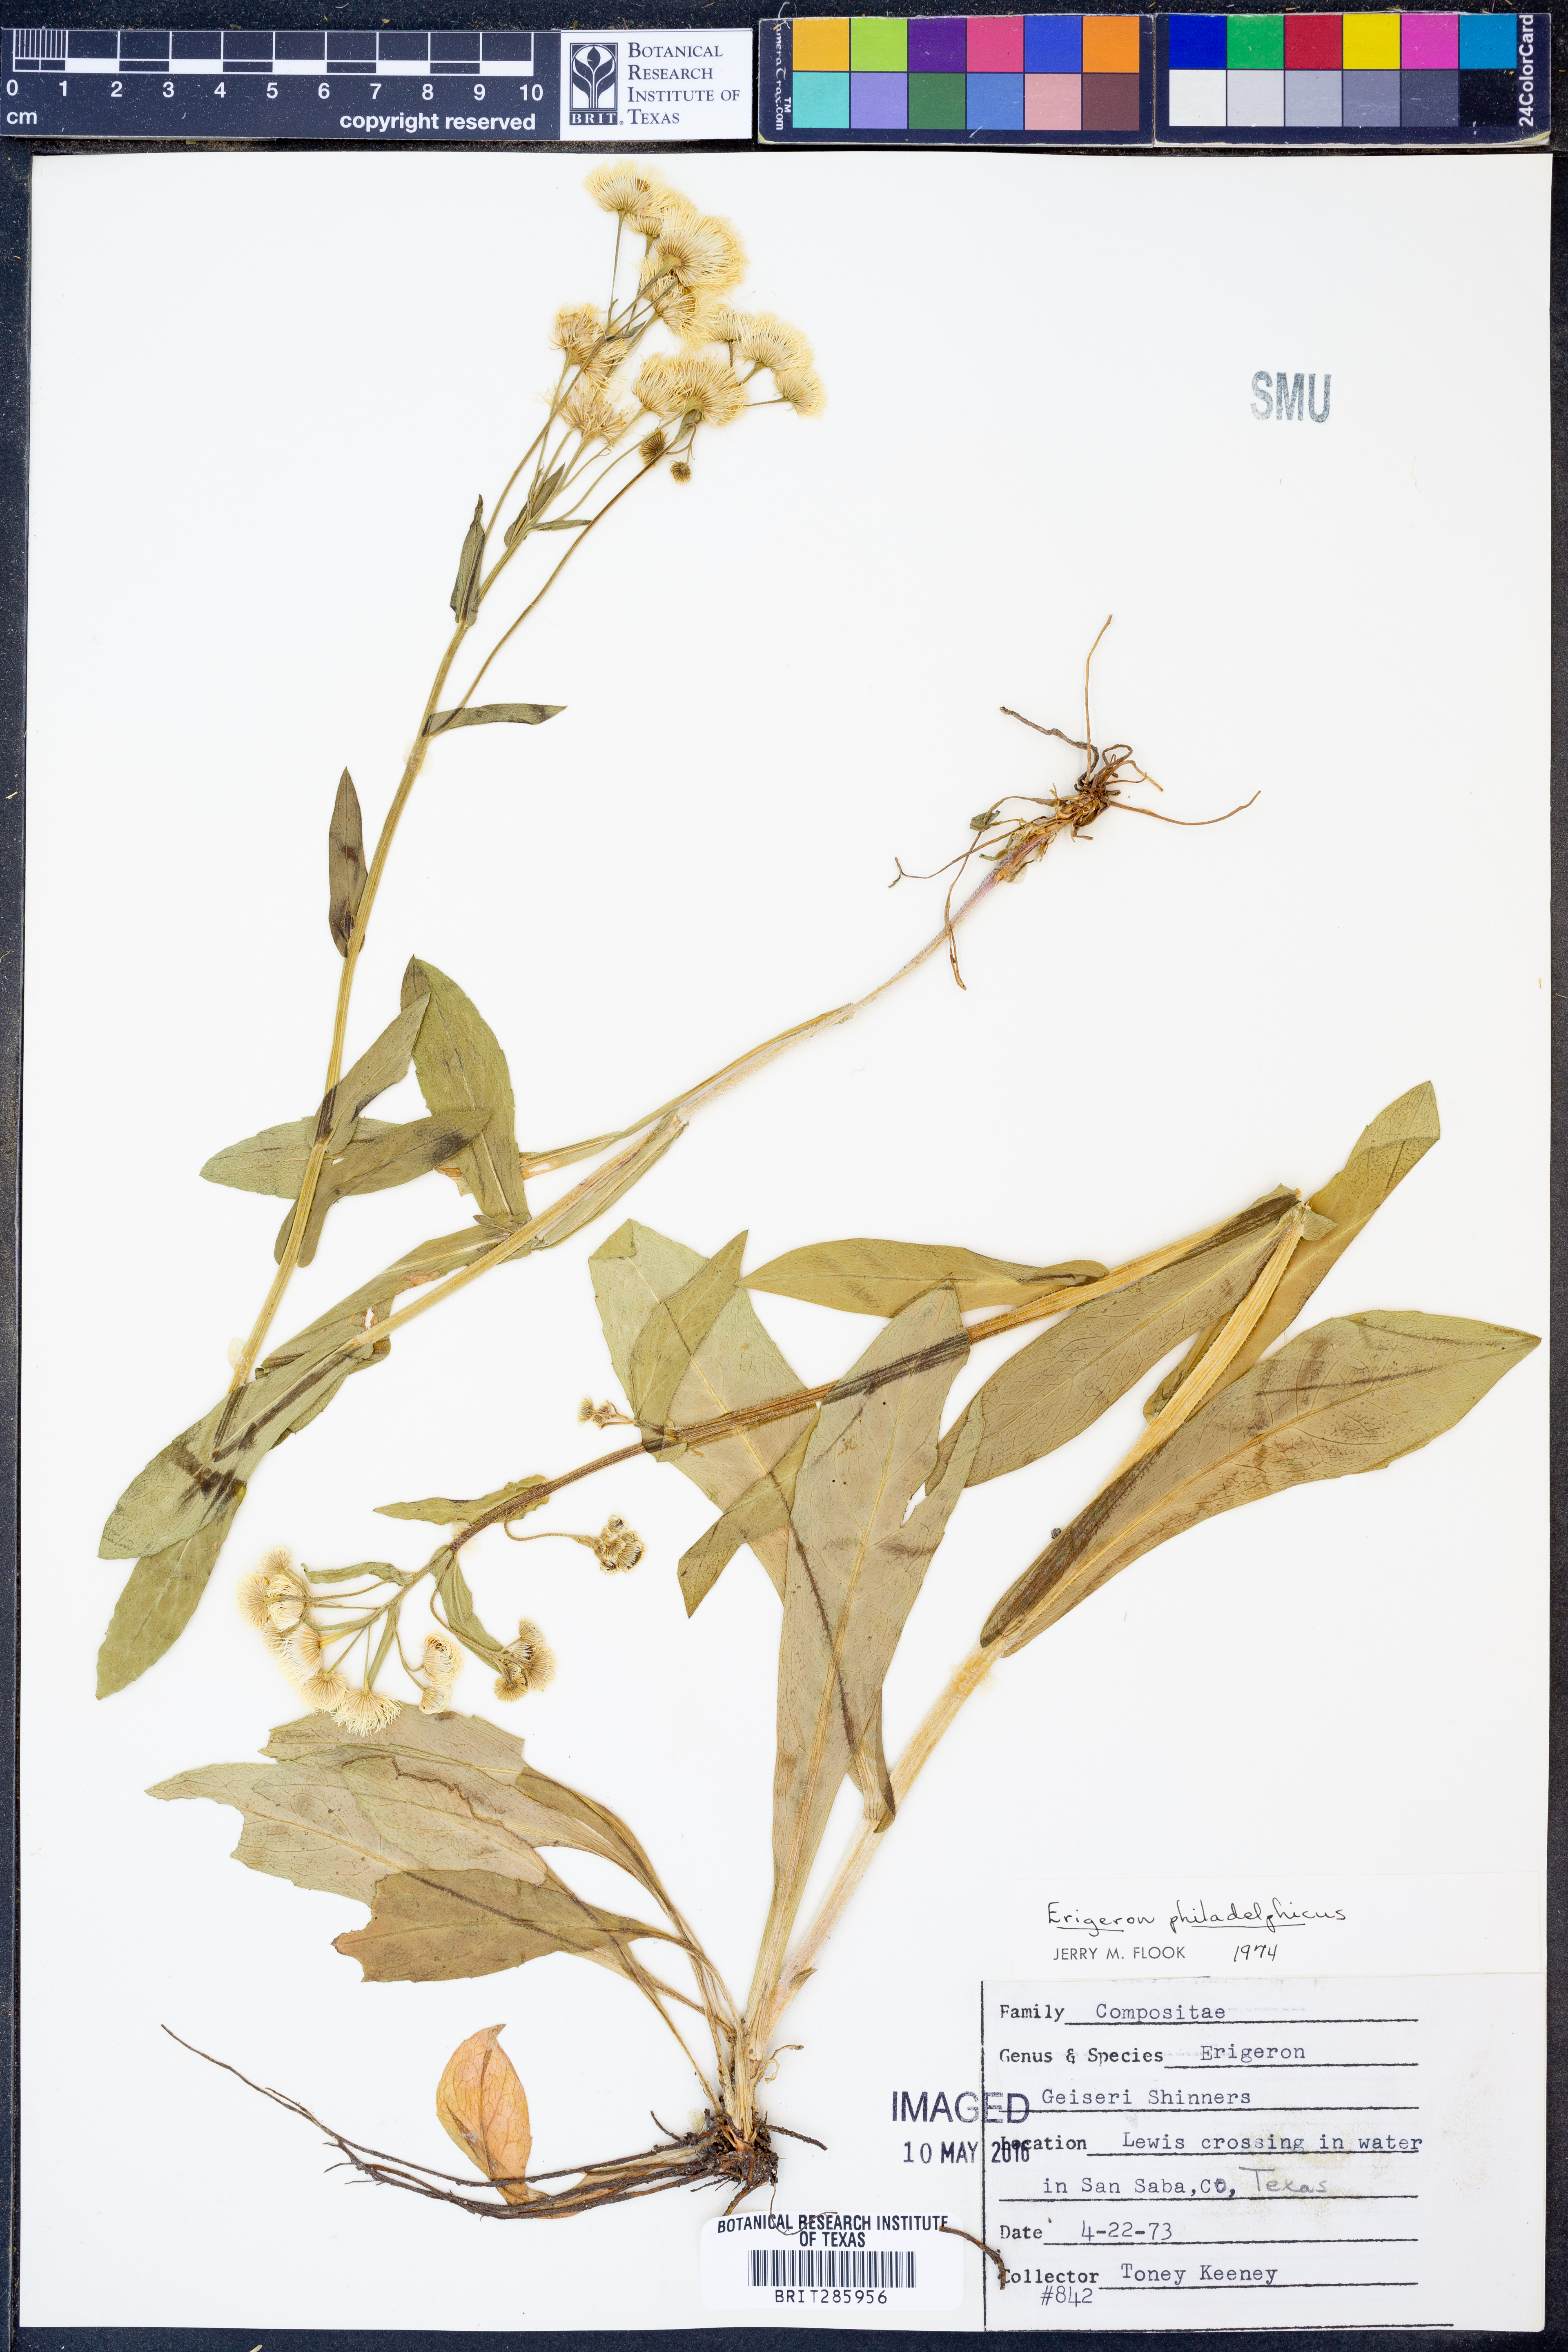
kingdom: Plantae
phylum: Tracheophyta
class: Magnoliopsida
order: Asterales
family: Asteraceae
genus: Erigeron
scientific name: Erigeron philadelphicus
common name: Robin's-plantain
